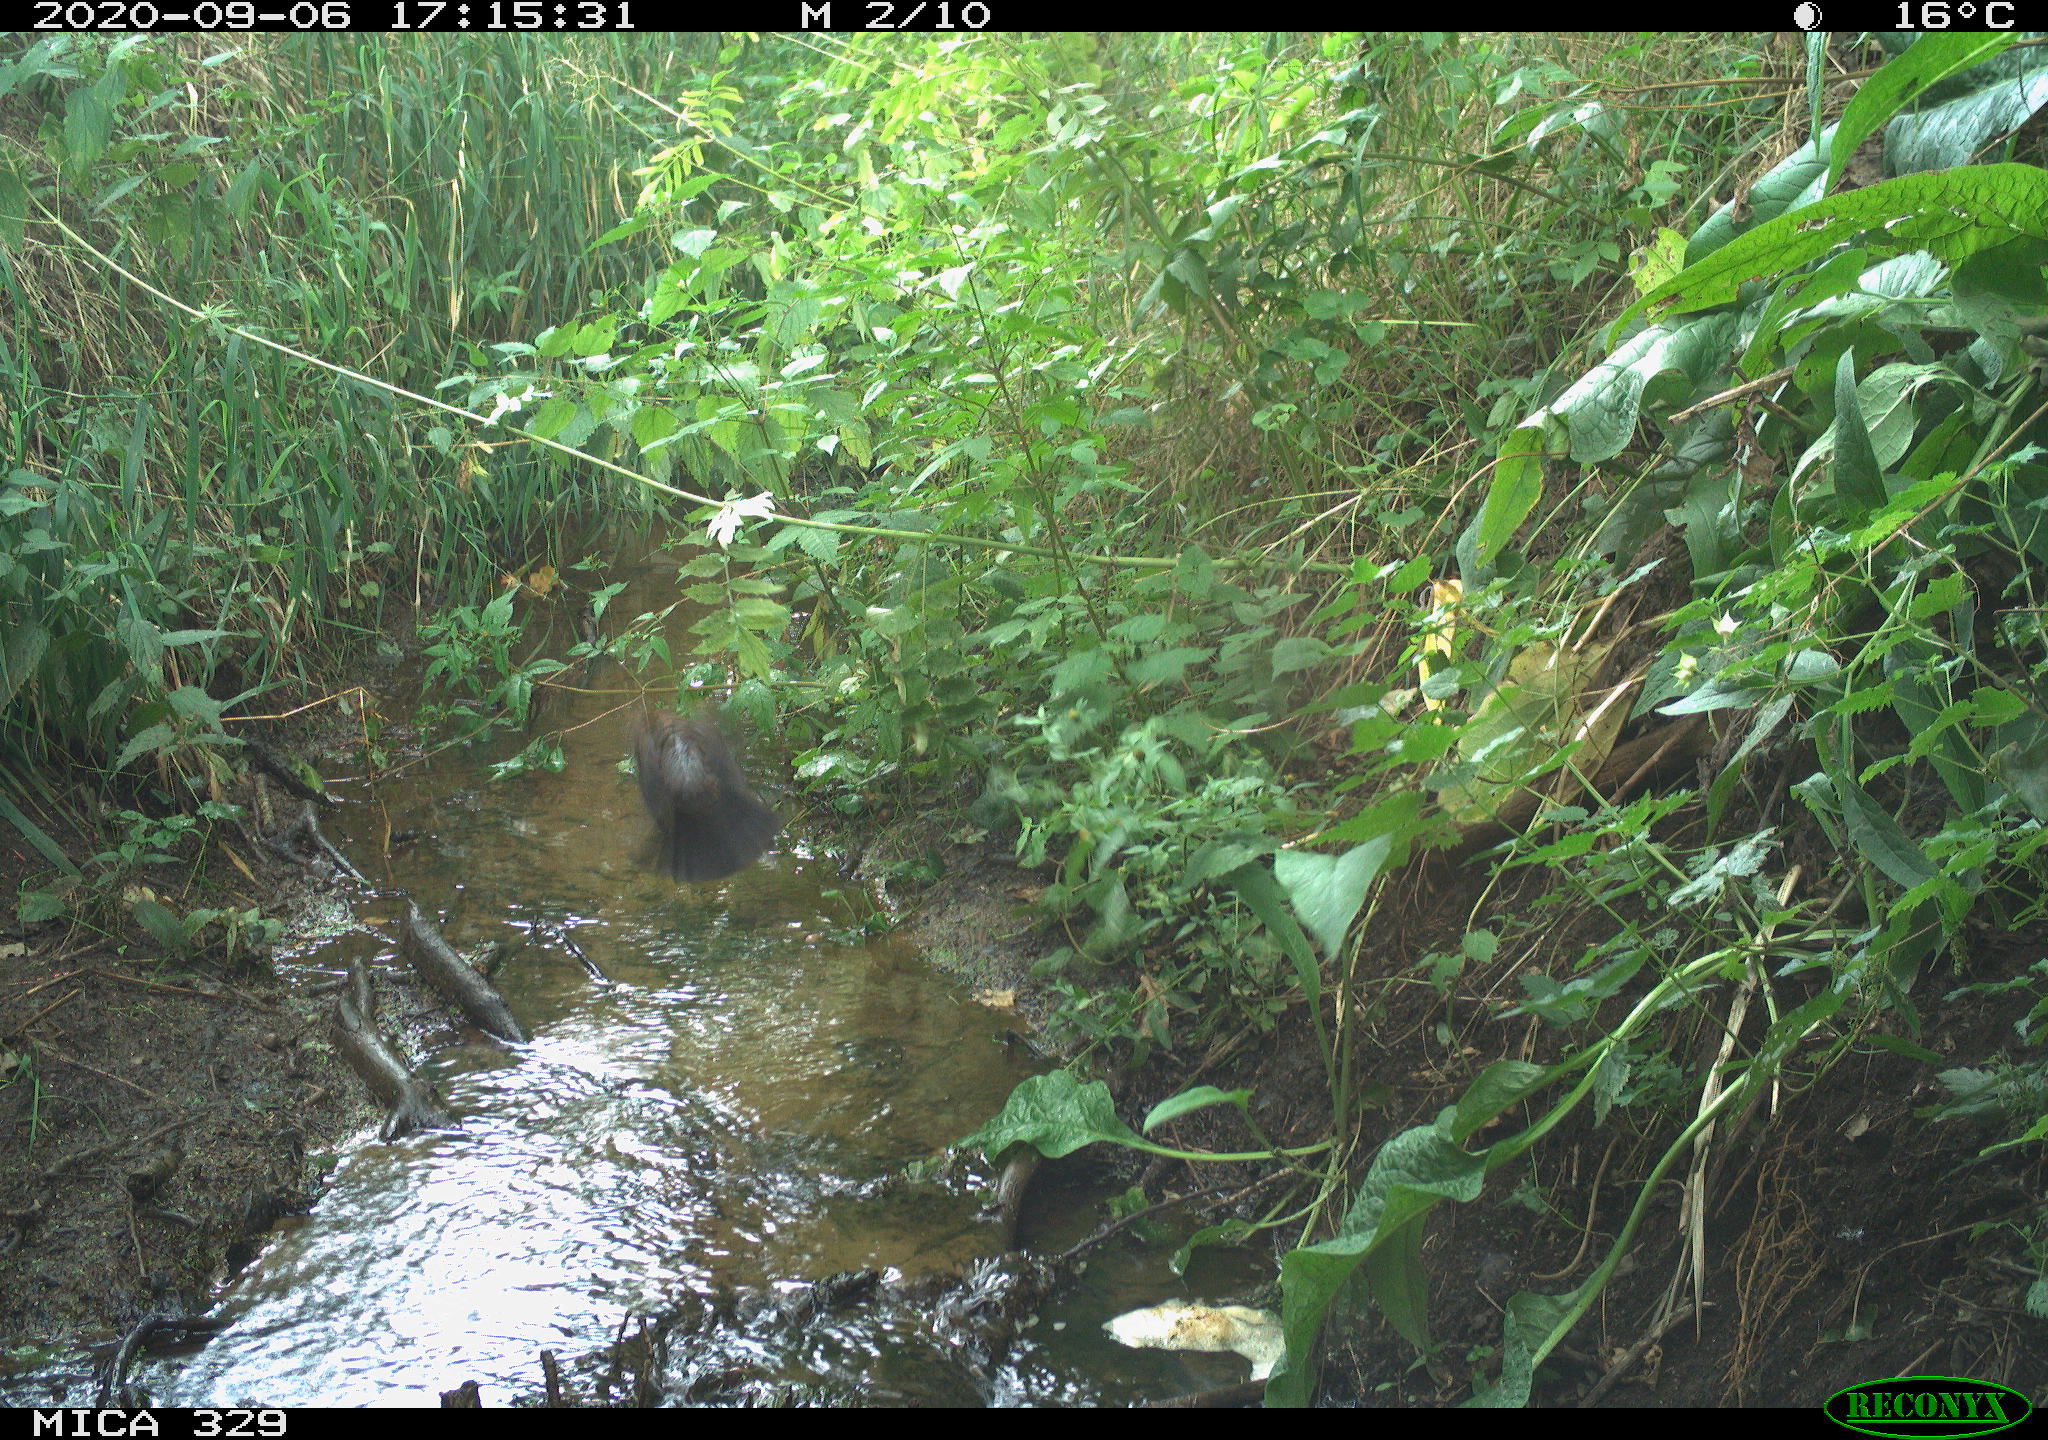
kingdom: Animalia
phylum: Chordata
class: Aves
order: Passeriformes
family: Turdidae
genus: Turdus
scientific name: Turdus philomelos
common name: Song thrush
